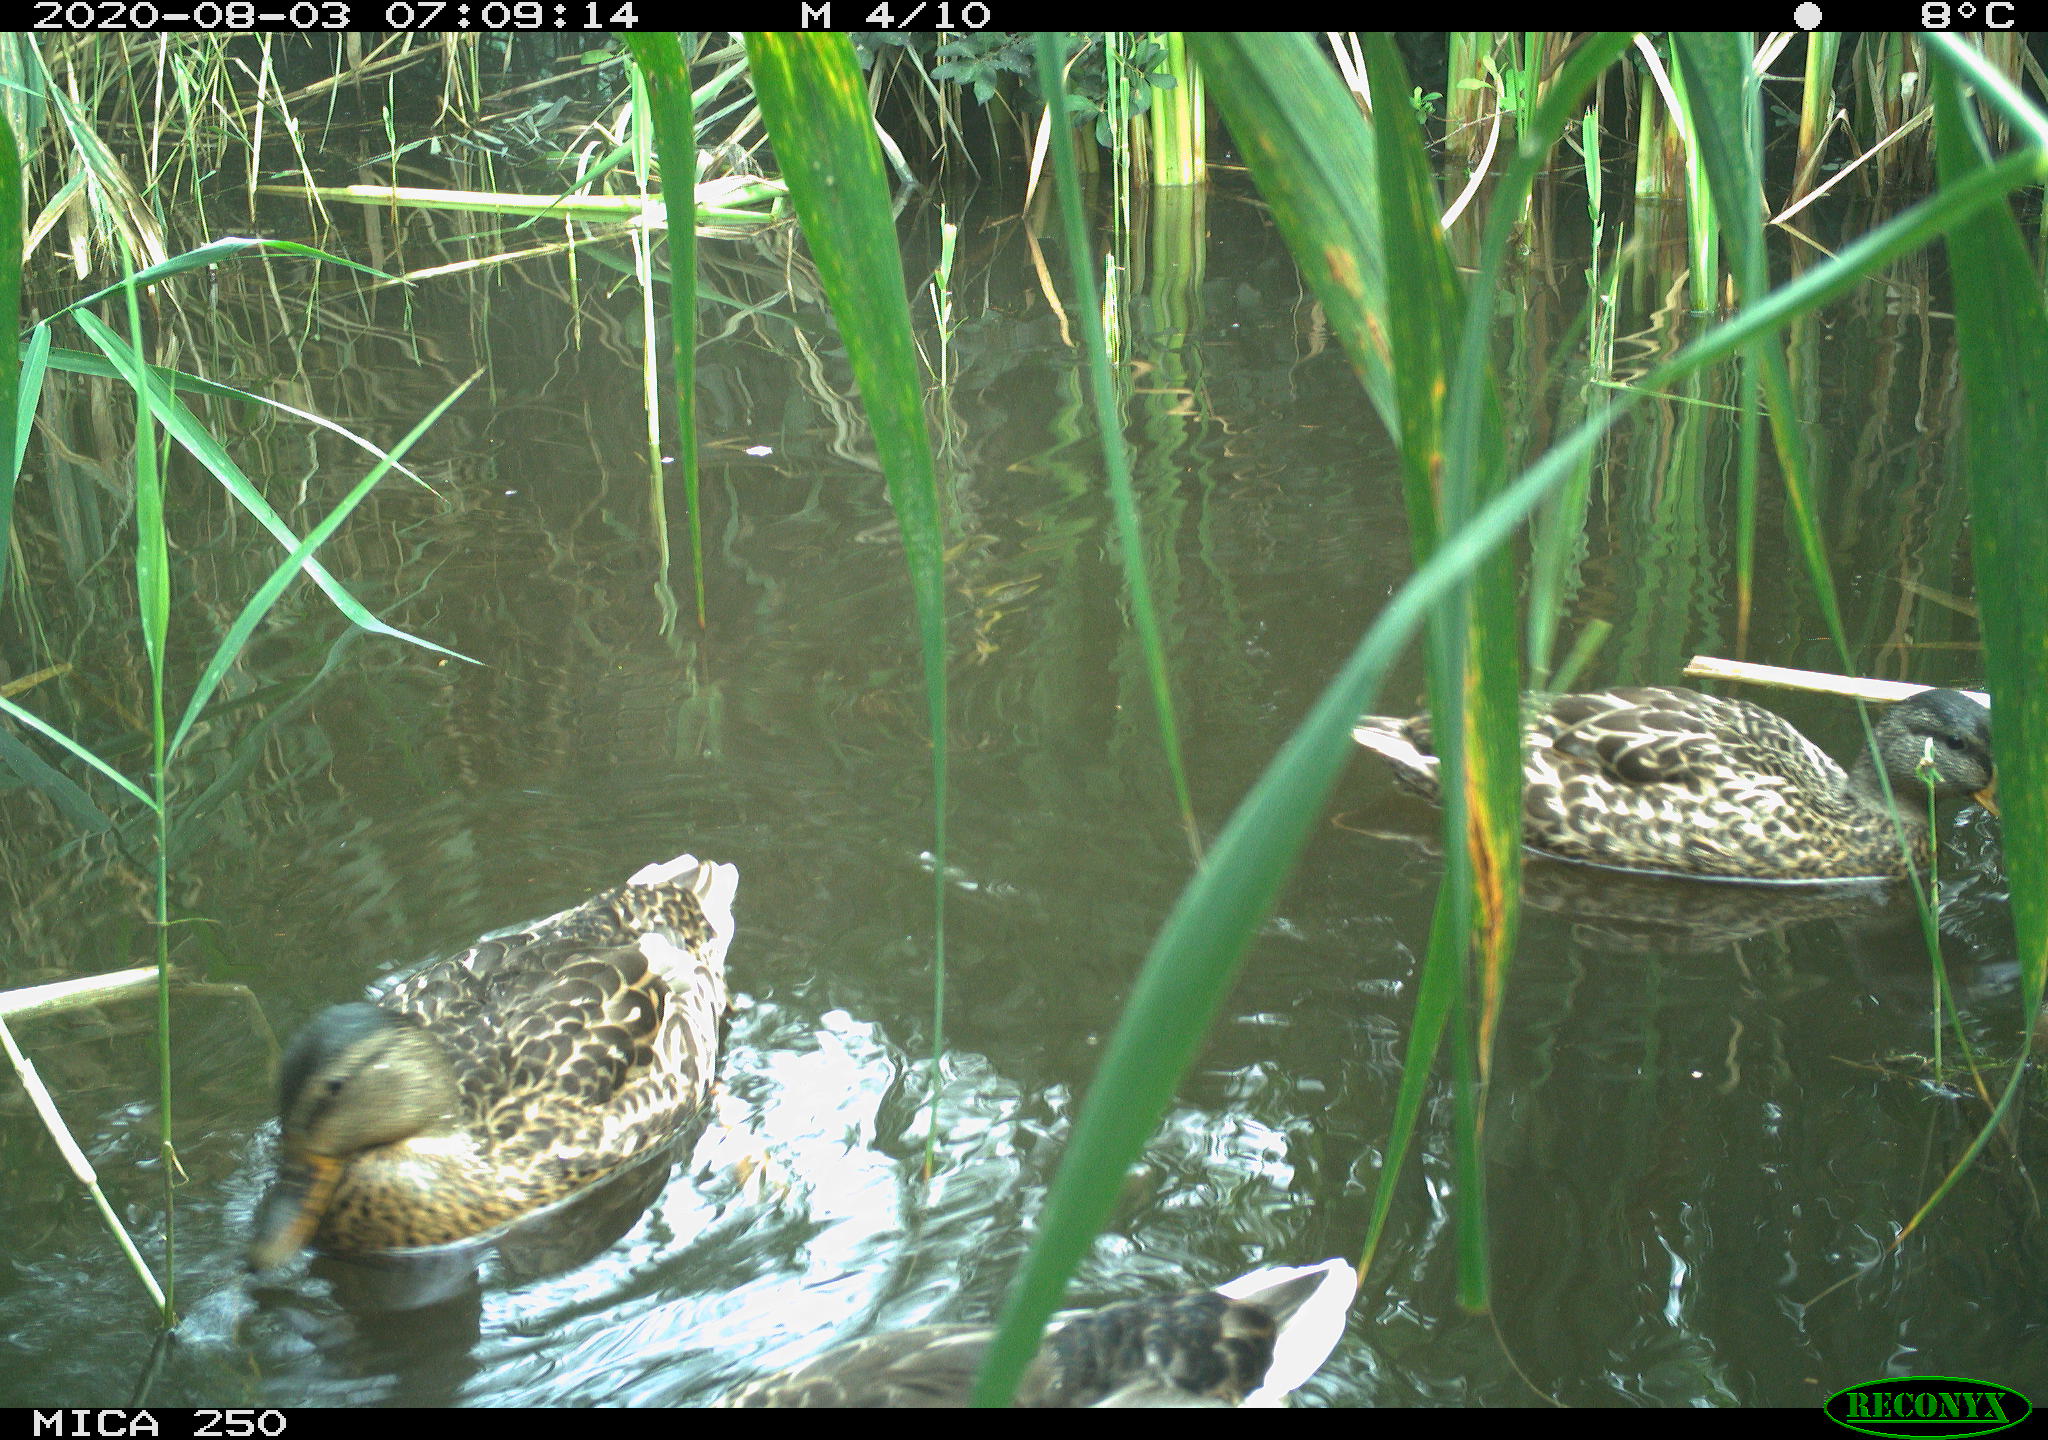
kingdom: Animalia
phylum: Chordata
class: Aves
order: Anseriformes
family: Anatidae
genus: Anas
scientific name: Anas platyrhynchos
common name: Mallard
